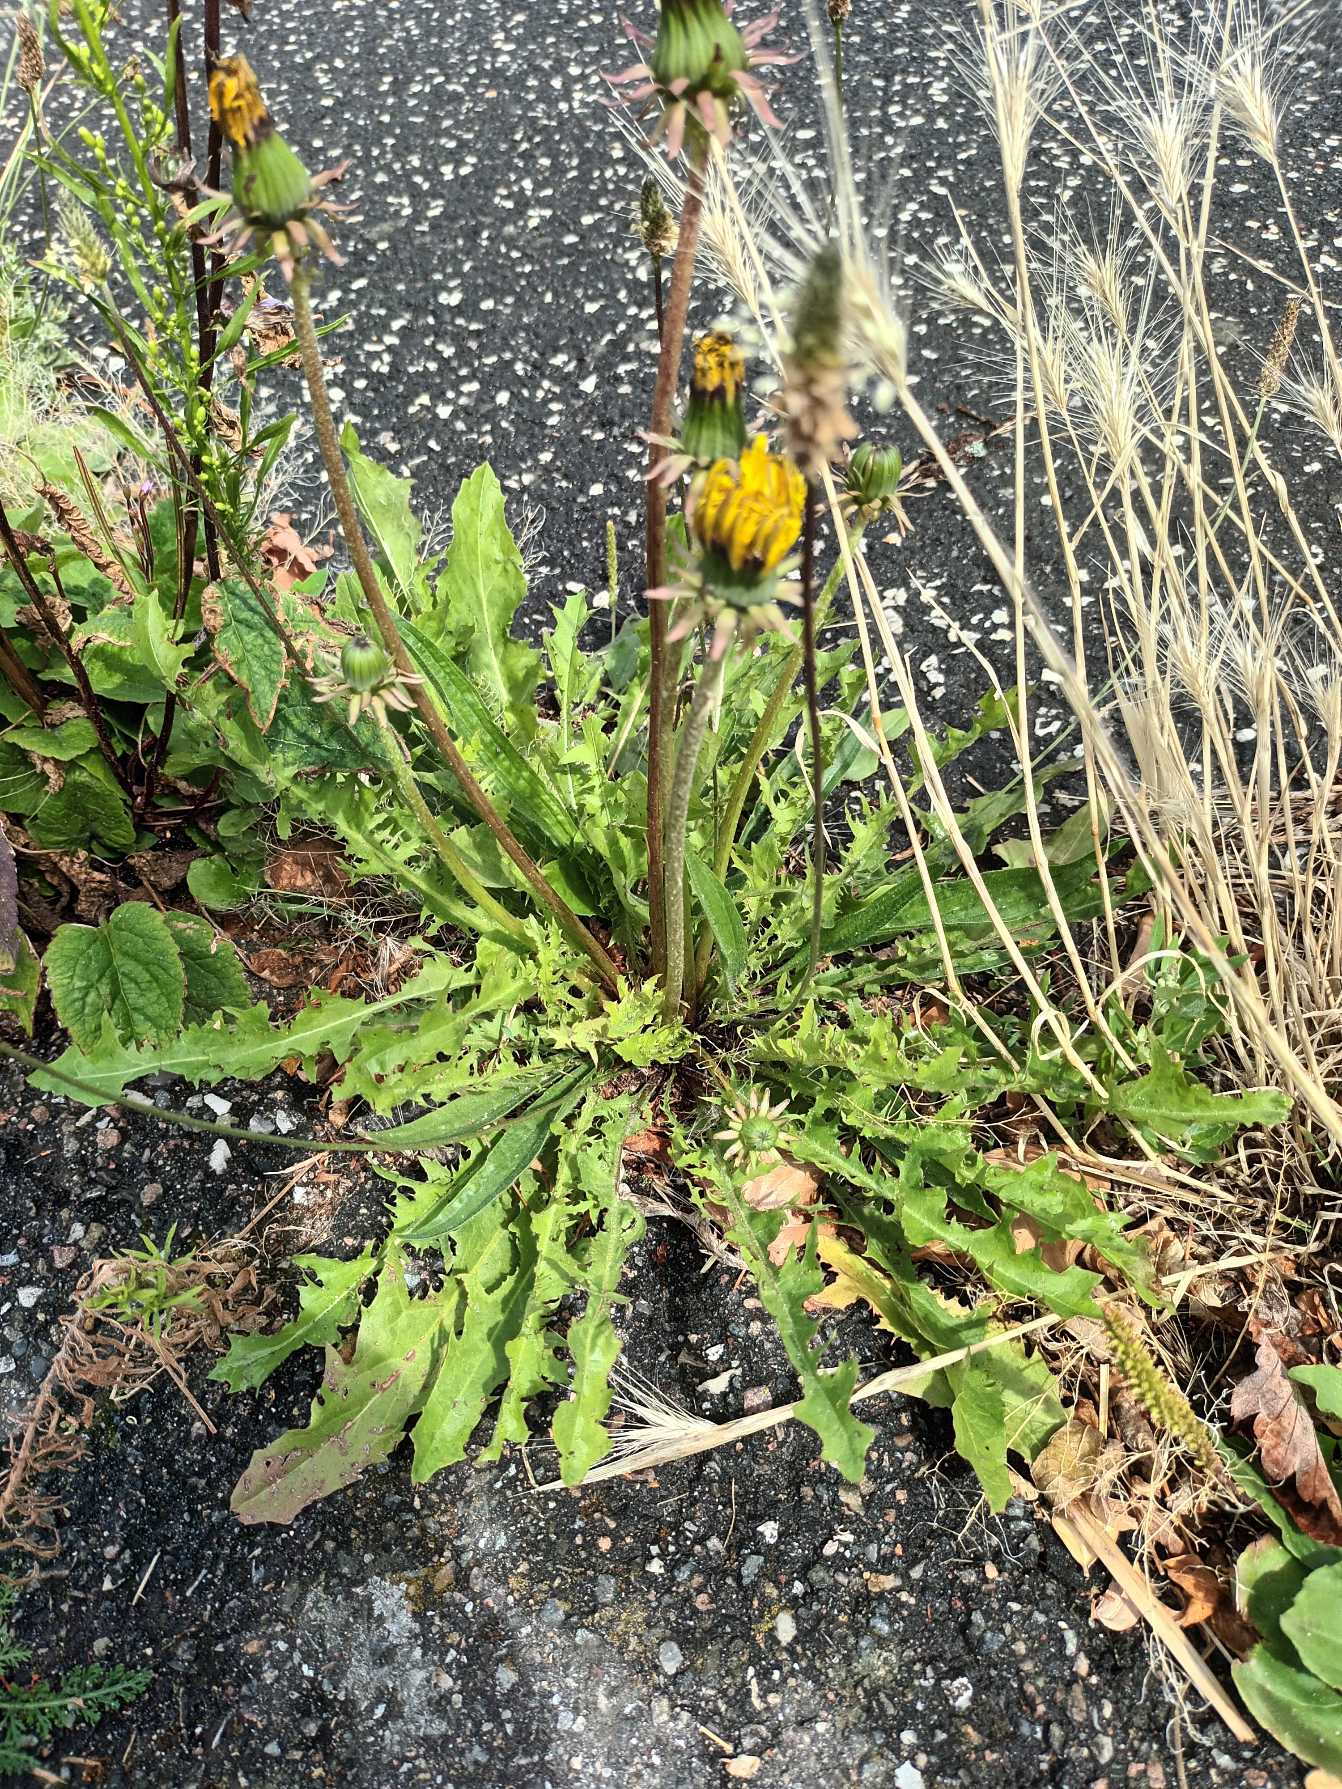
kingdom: Plantae
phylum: Tracheophyta
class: Magnoliopsida
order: Asterales
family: Asteraceae
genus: Taraxacum
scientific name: Taraxacum
